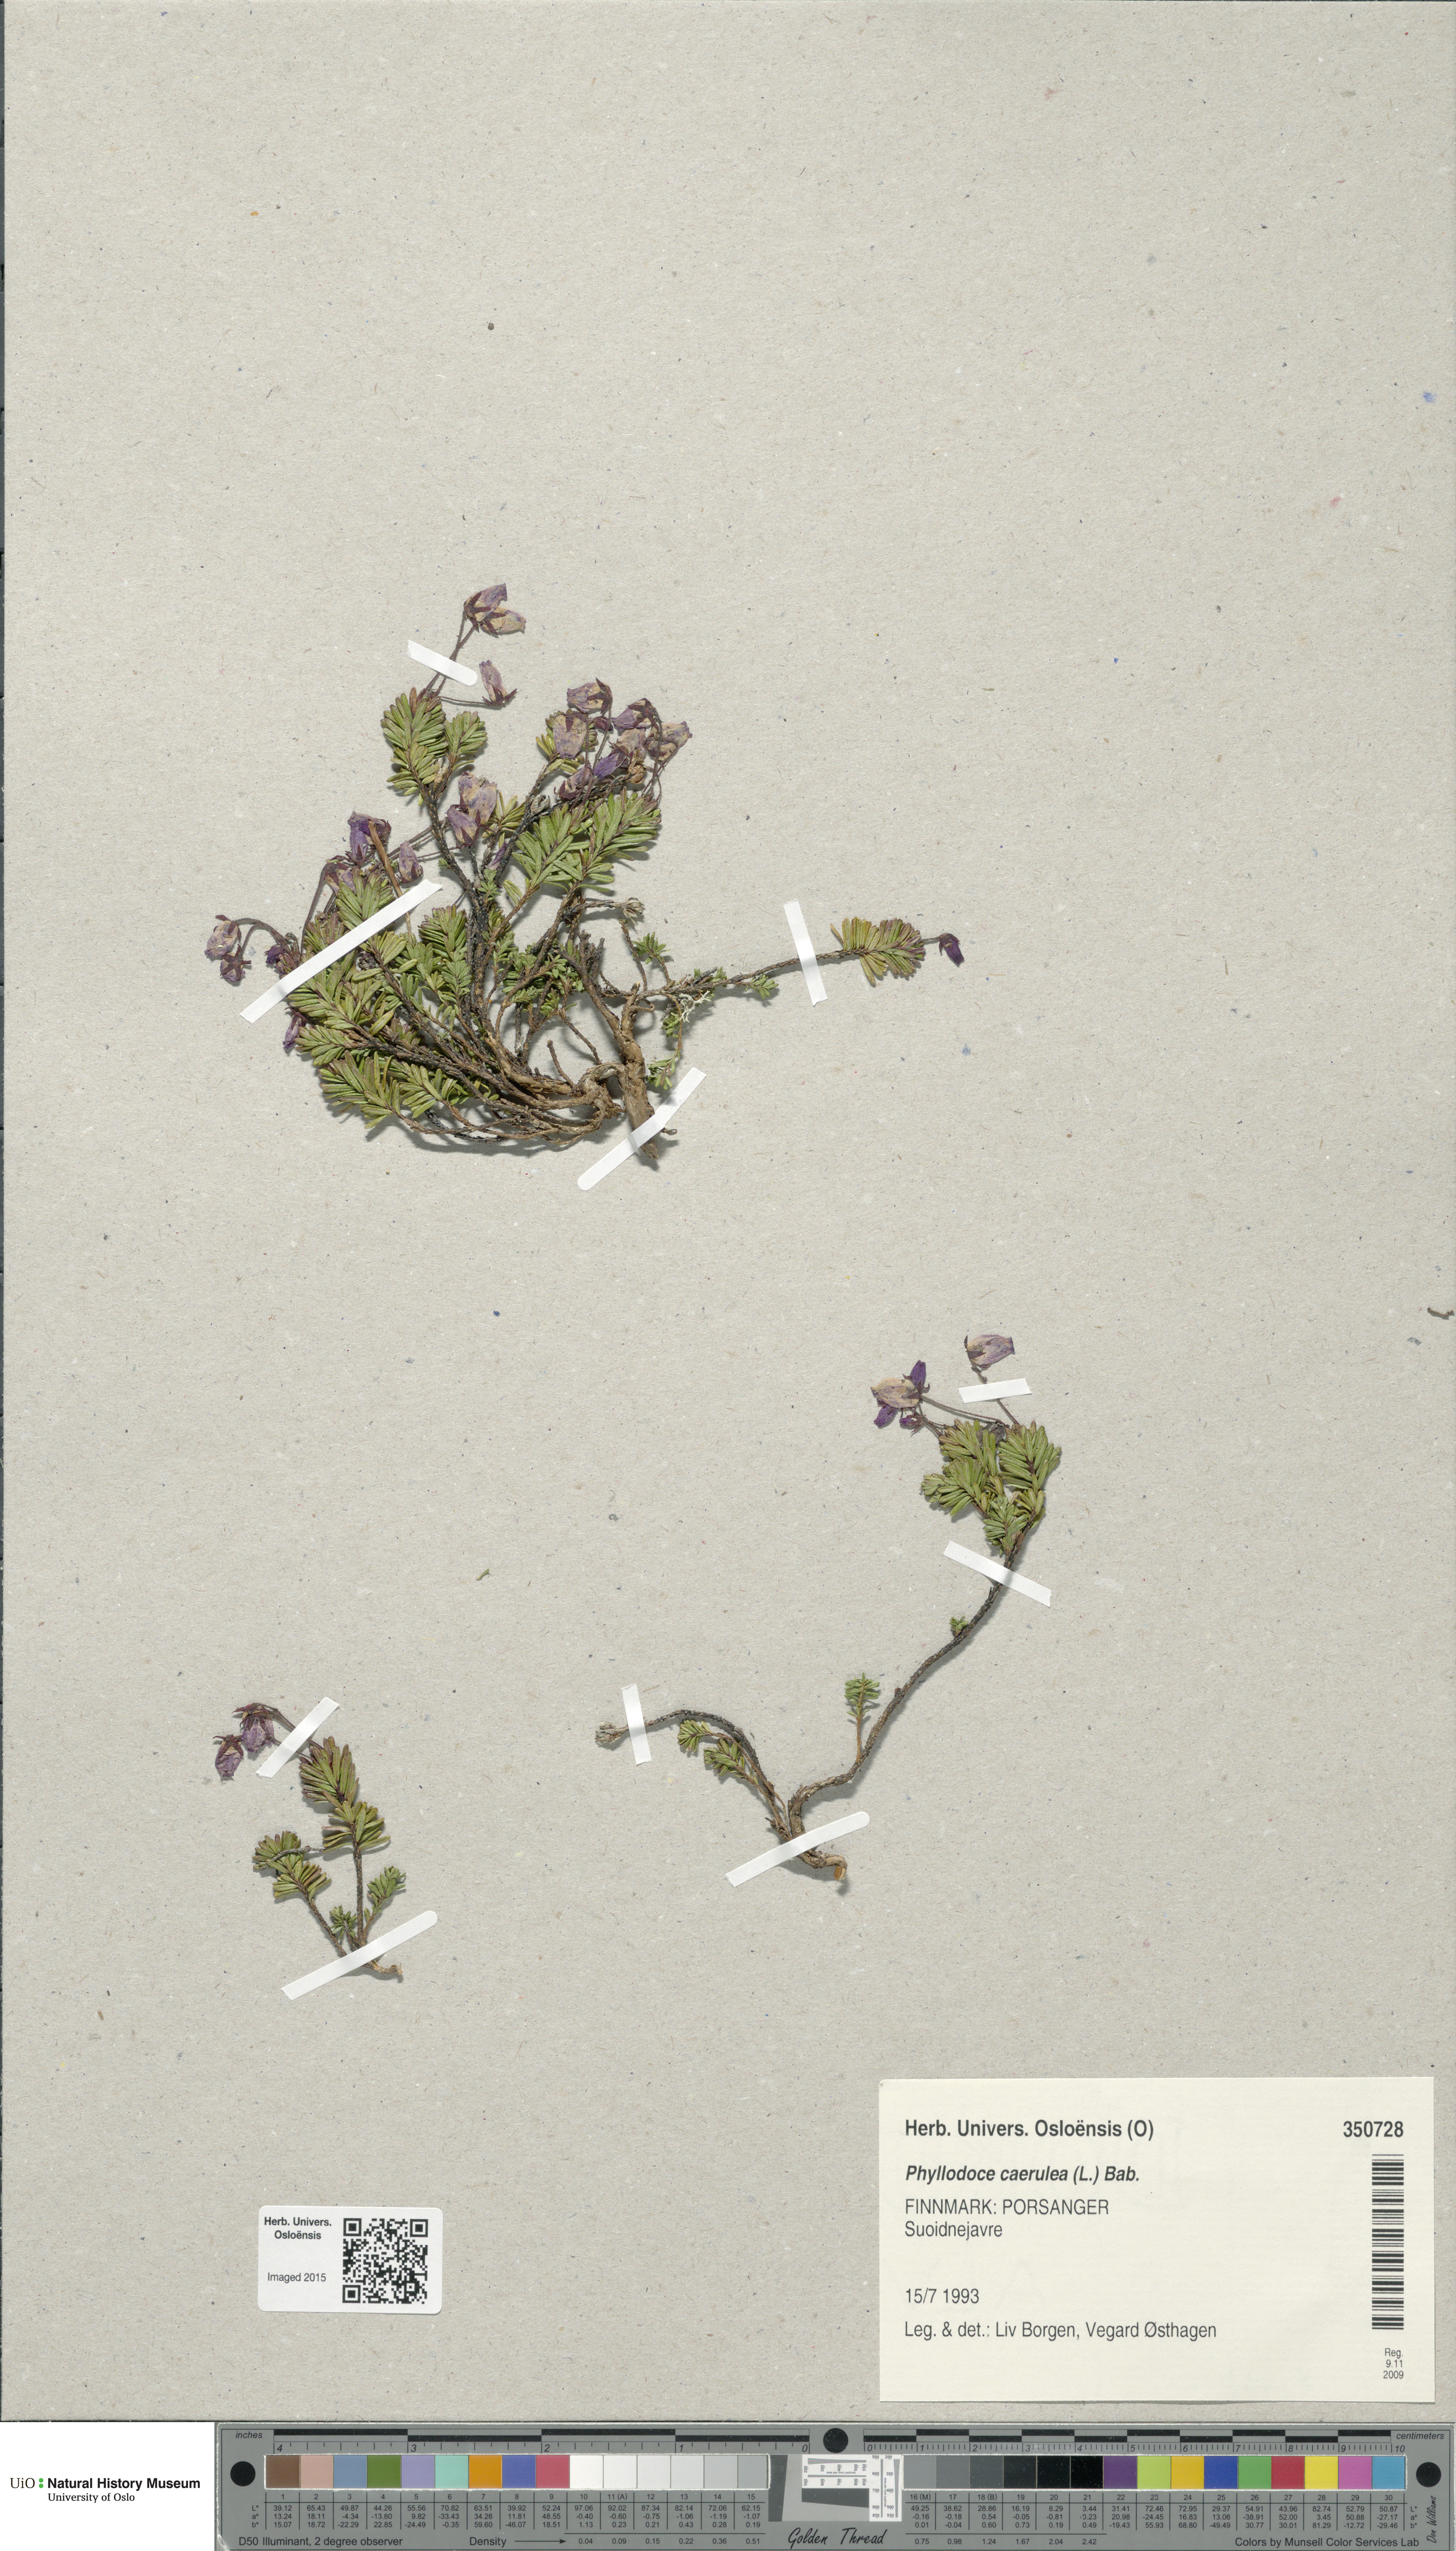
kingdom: Plantae
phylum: Tracheophyta
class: Magnoliopsida
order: Ericales
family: Ericaceae
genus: Phyllodoce
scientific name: Phyllodoce caerulea
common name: Blue heath
